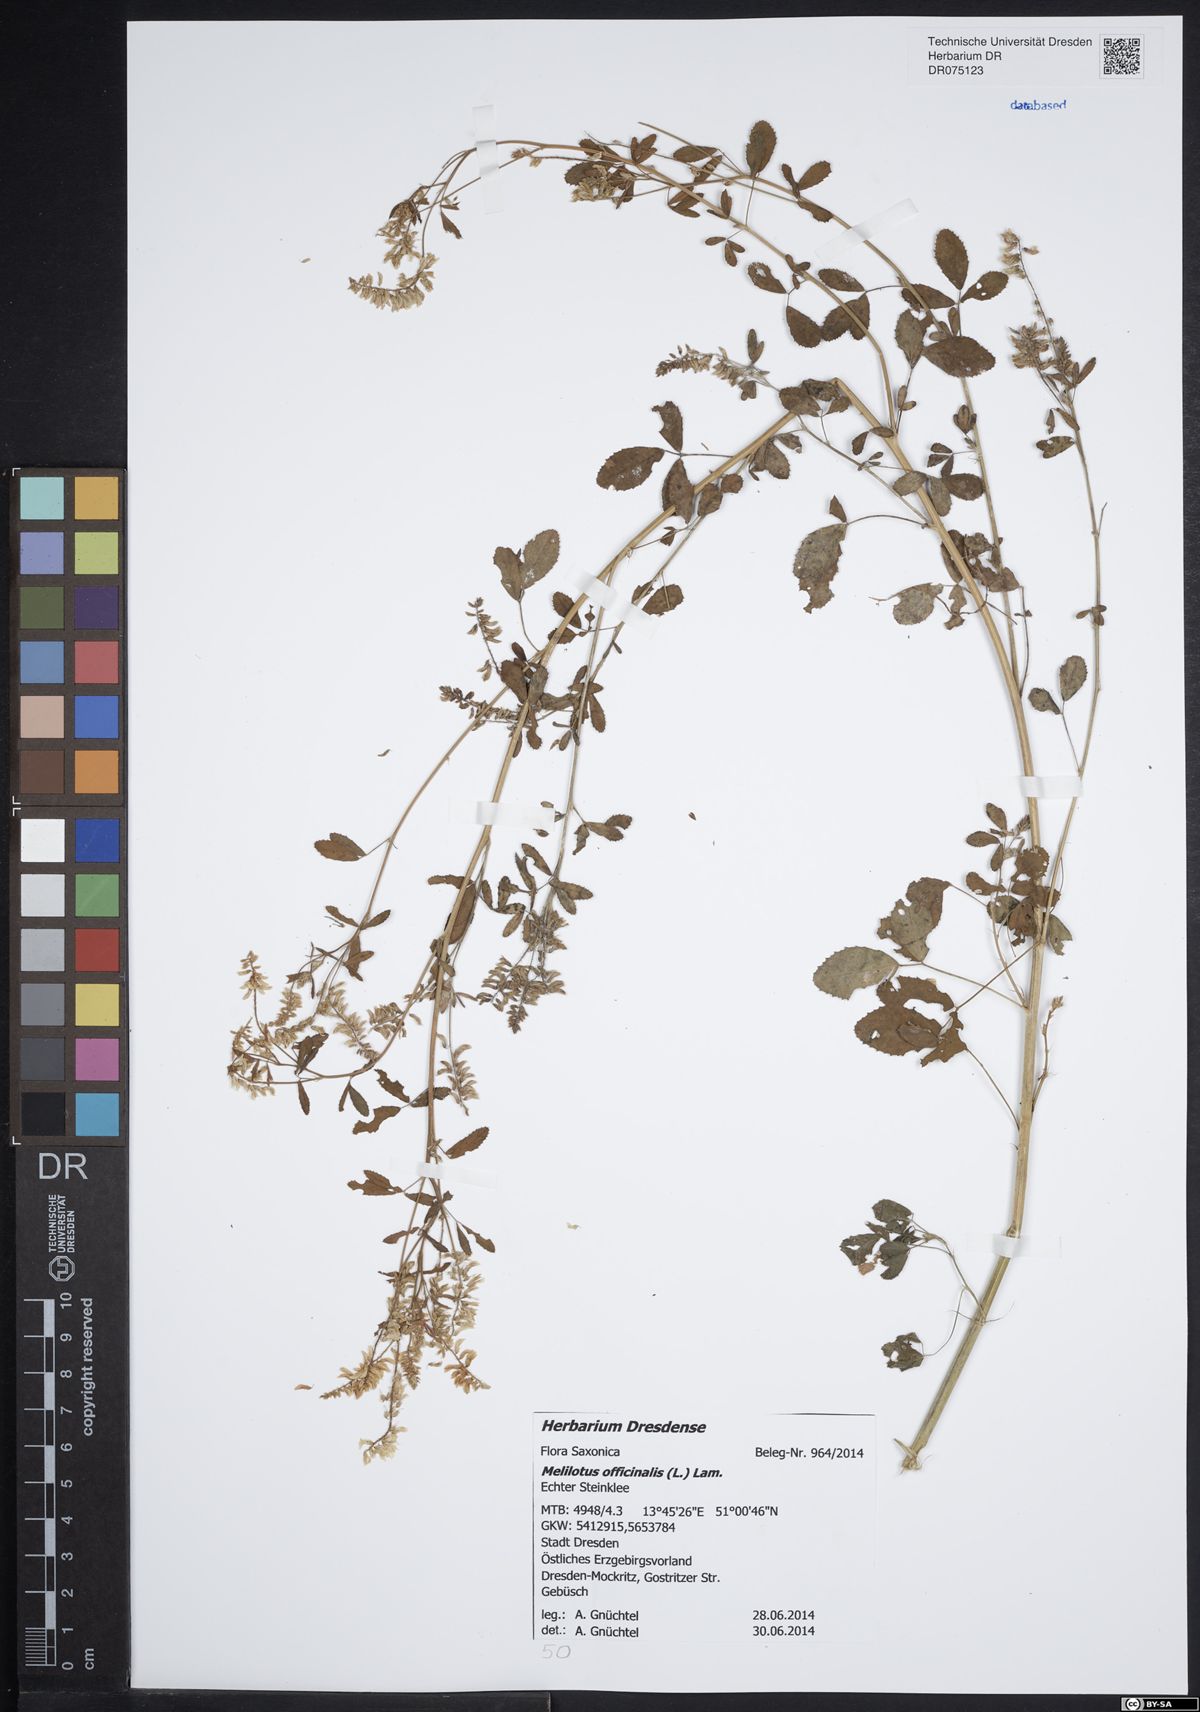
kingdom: Plantae
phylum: Tracheophyta
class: Magnoliopsida
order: Fabales
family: Fabaceae
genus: Melilotus
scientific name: Melilotus officinalis
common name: Sweetclover
